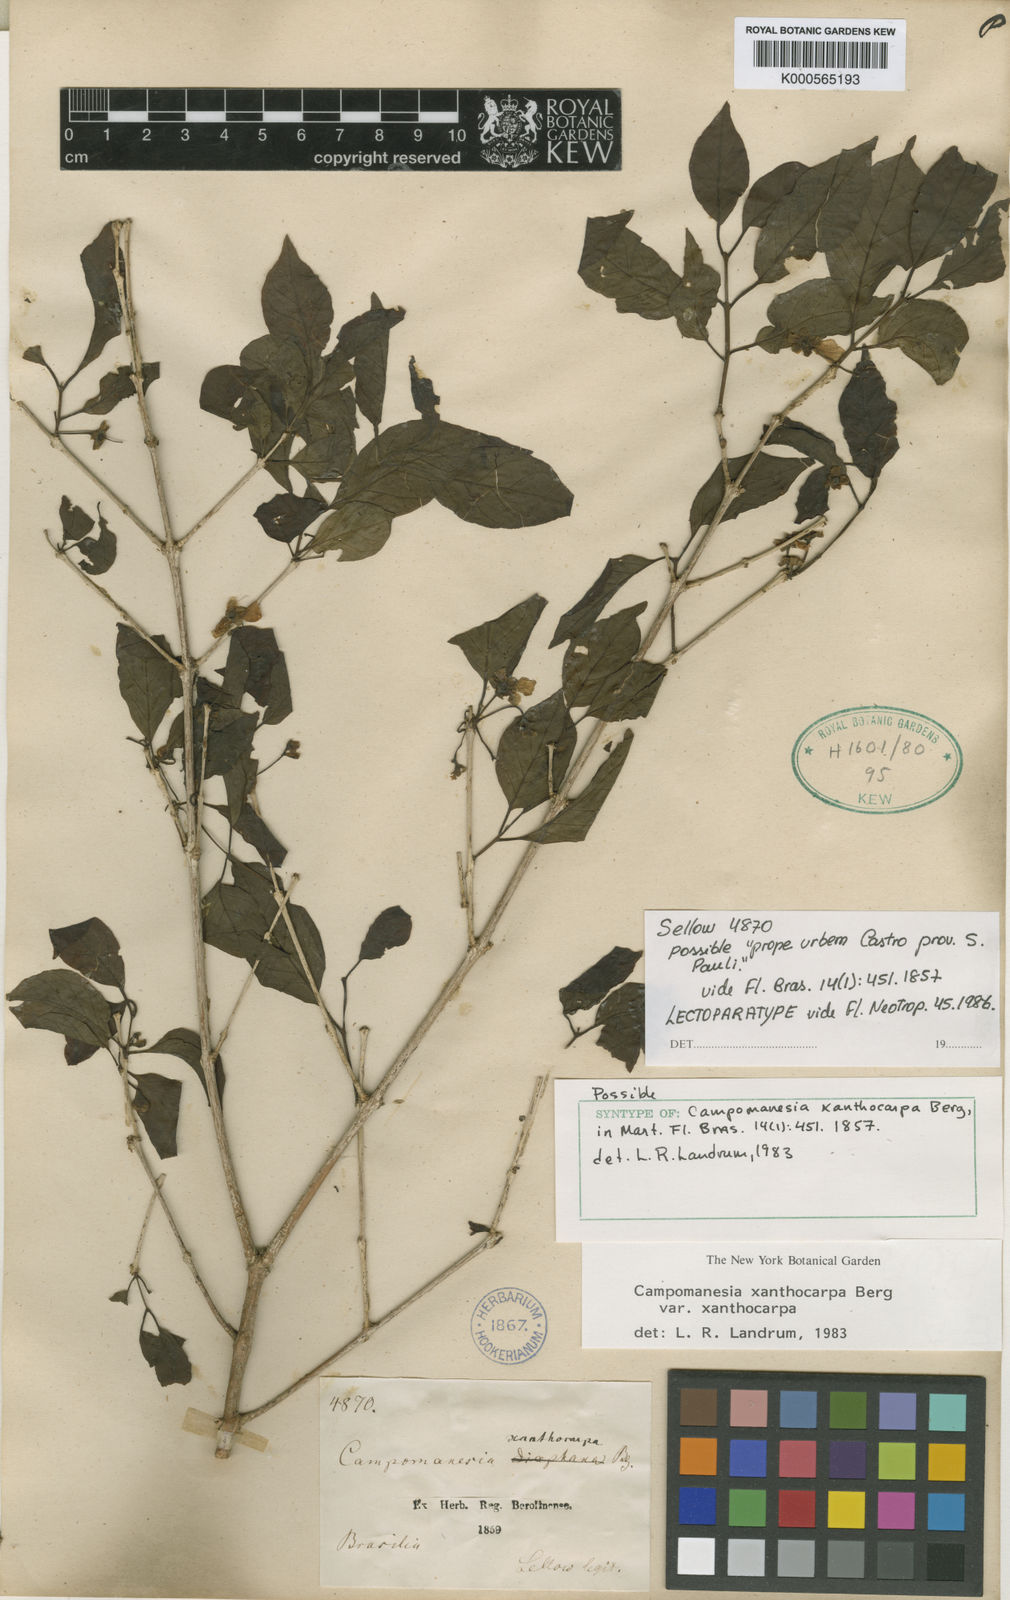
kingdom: Plantae
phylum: Tracheophyta
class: Magnoliopsida
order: Myrtales
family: Myrtaceae
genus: Campomanesia
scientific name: Campomanesia xanthocarpa
